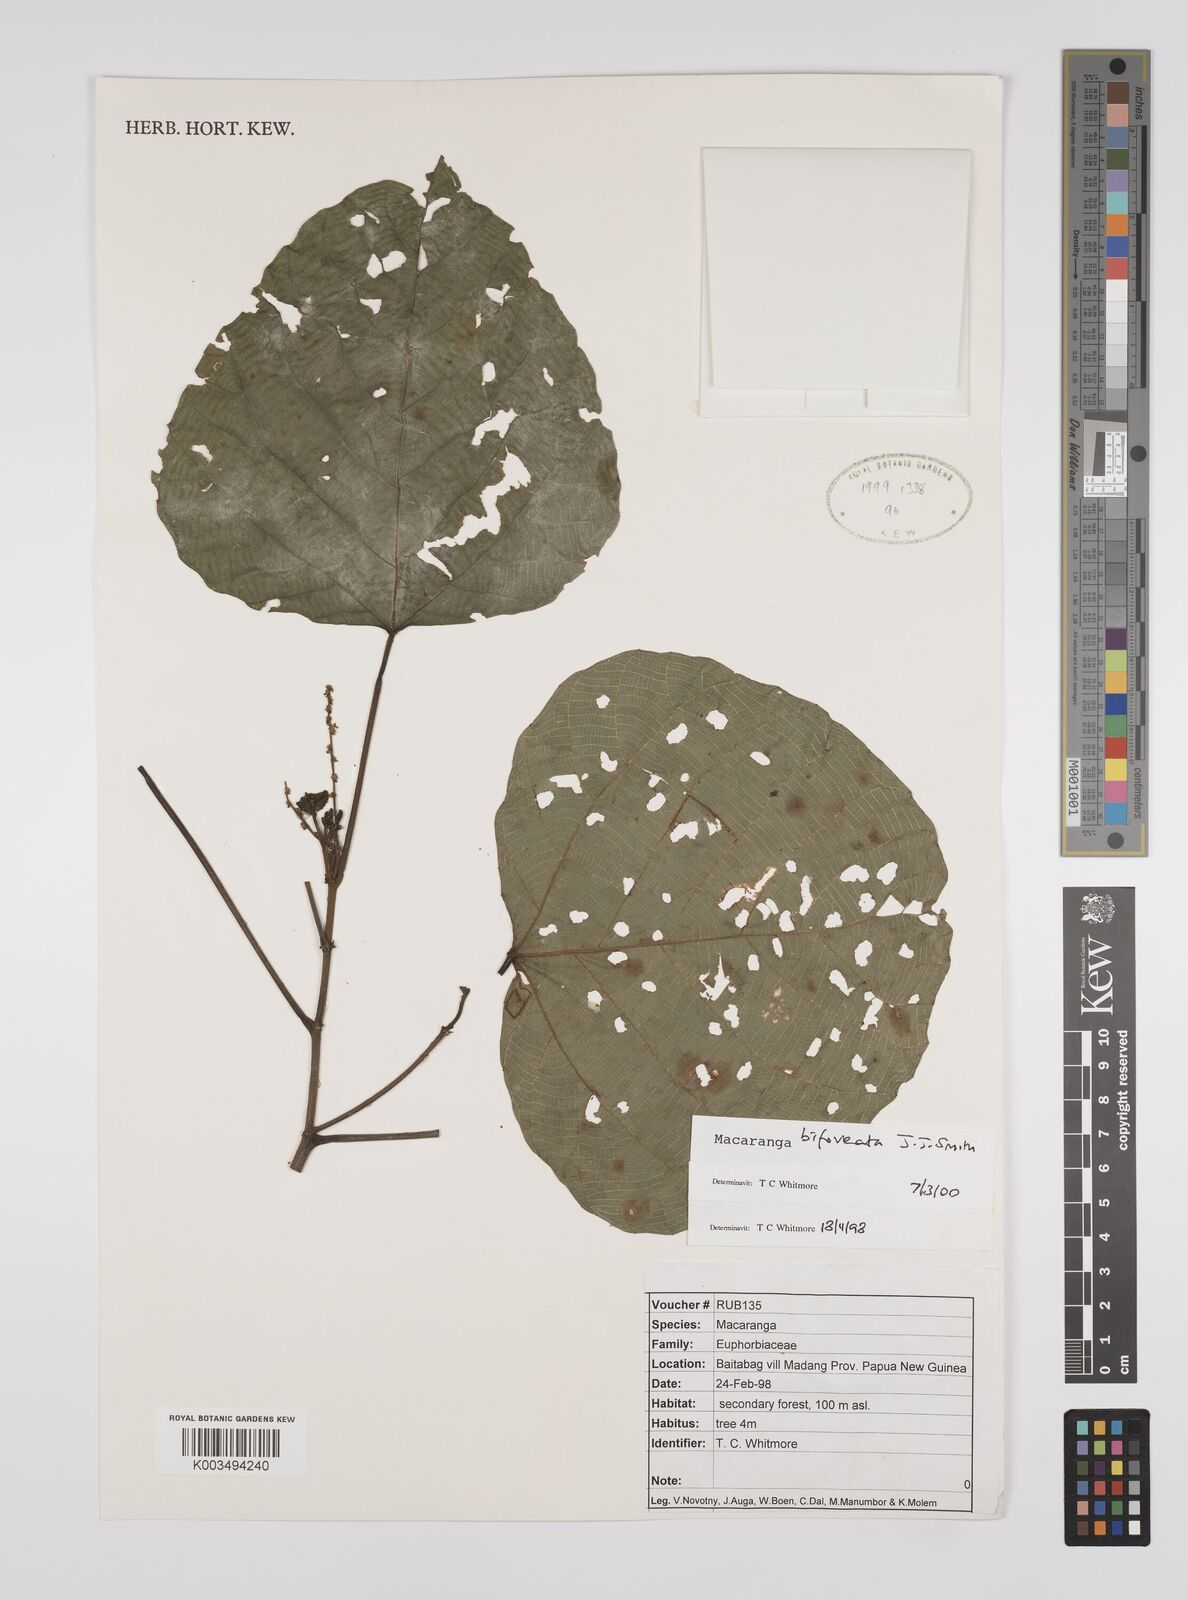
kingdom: Plantae
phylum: Tracheophyta
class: Magnoliopsida
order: Malpighiales
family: Euphorbiaceae
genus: Macaranga
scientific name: Macaranga bifoveata
